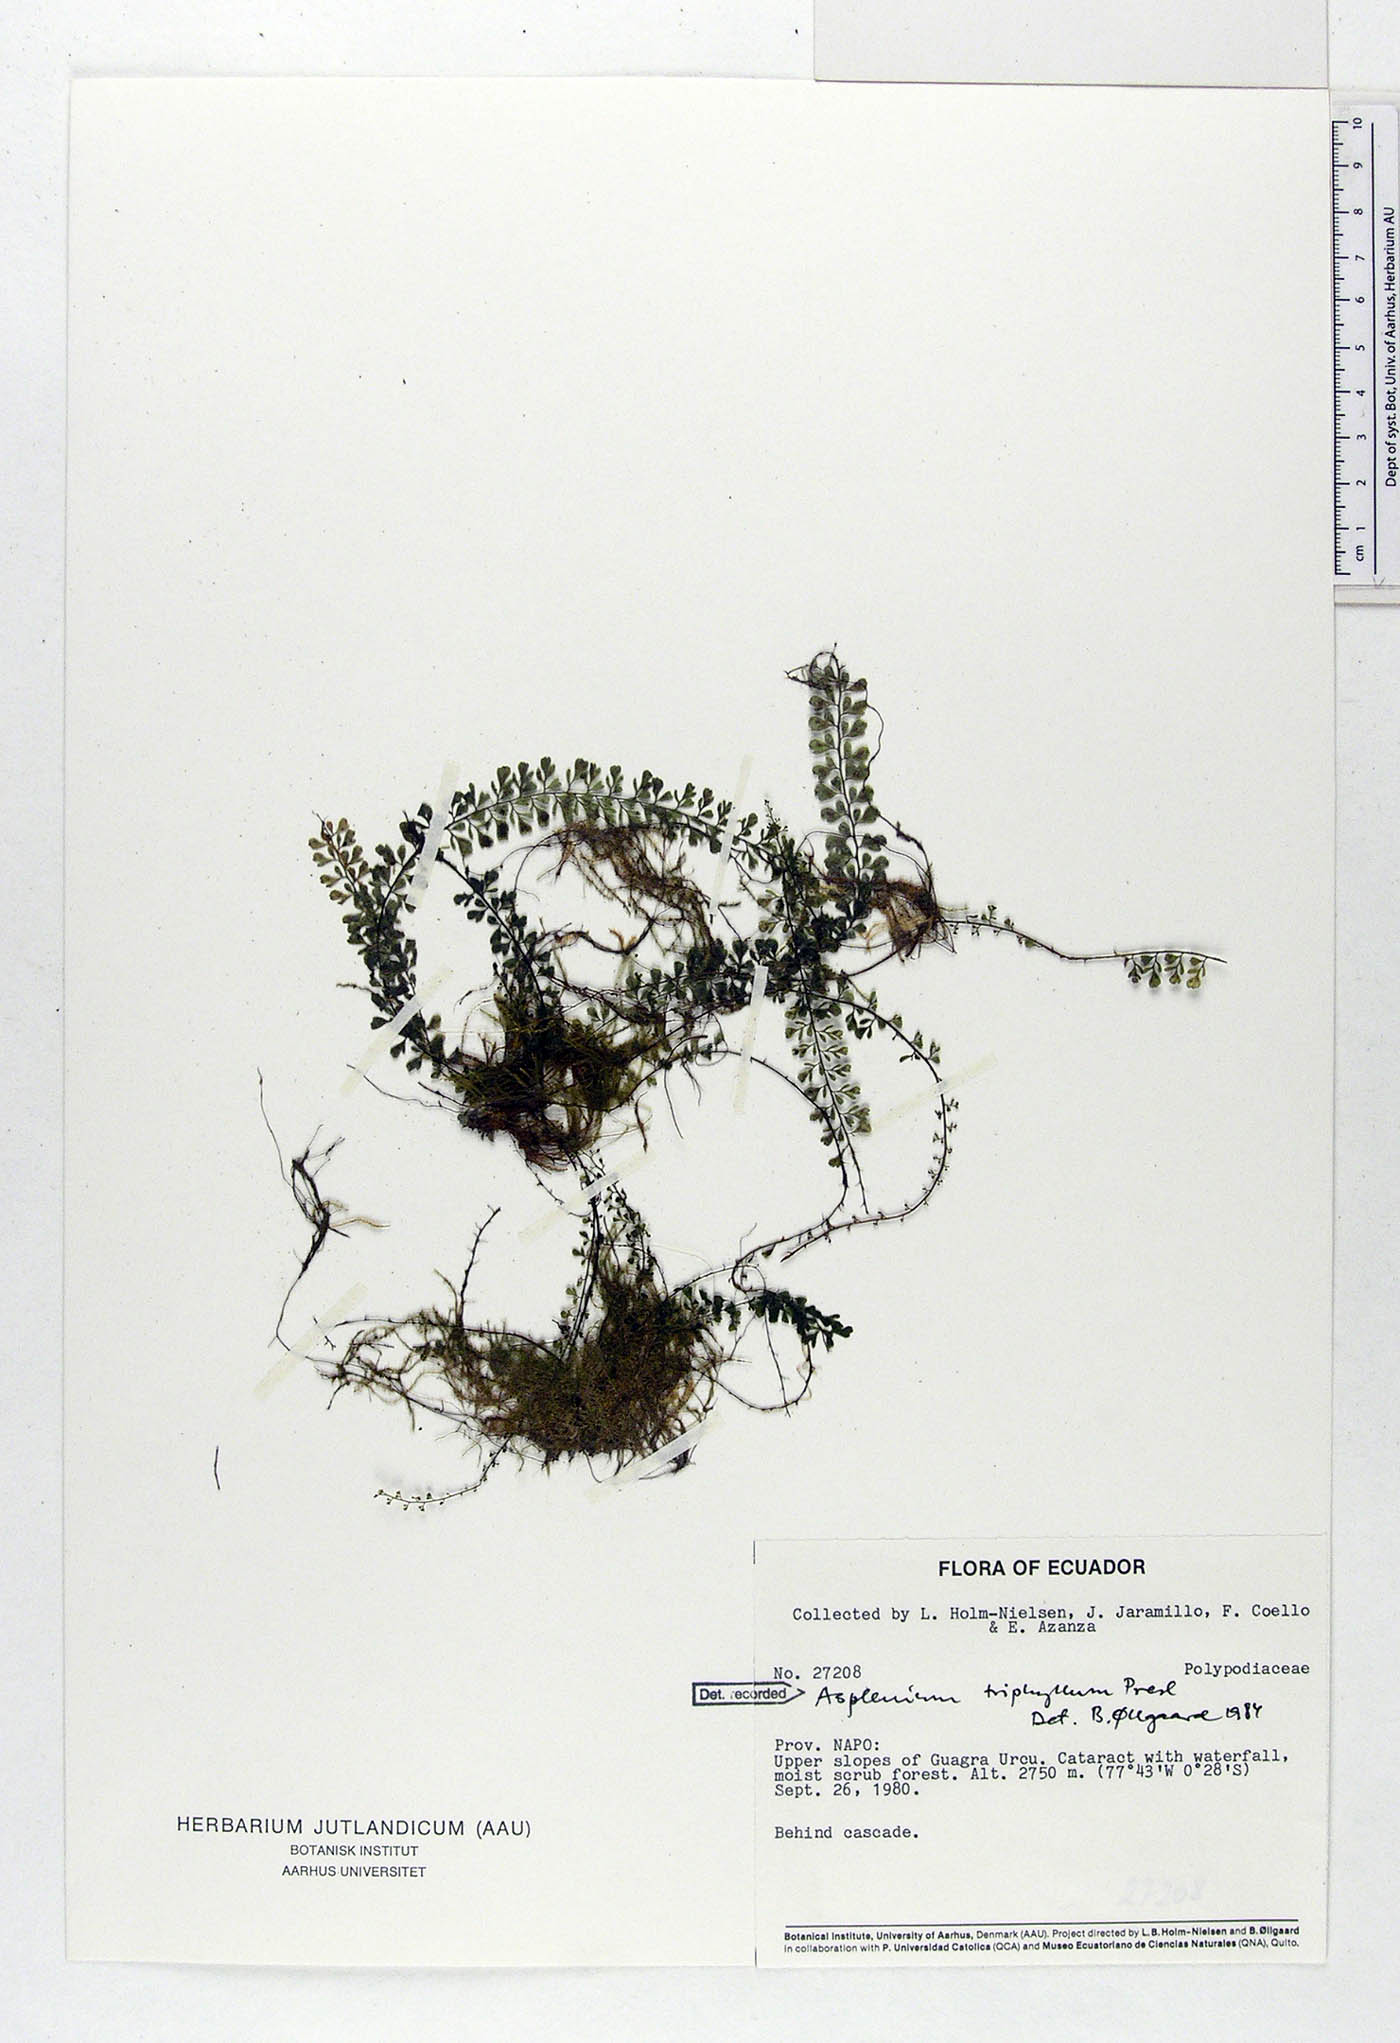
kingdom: Plantae
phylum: Tracheophyta
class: Polypodiopsida
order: Polypodiales
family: Aspleniaceae
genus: Asplenium
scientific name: Asplenium triphyllum
